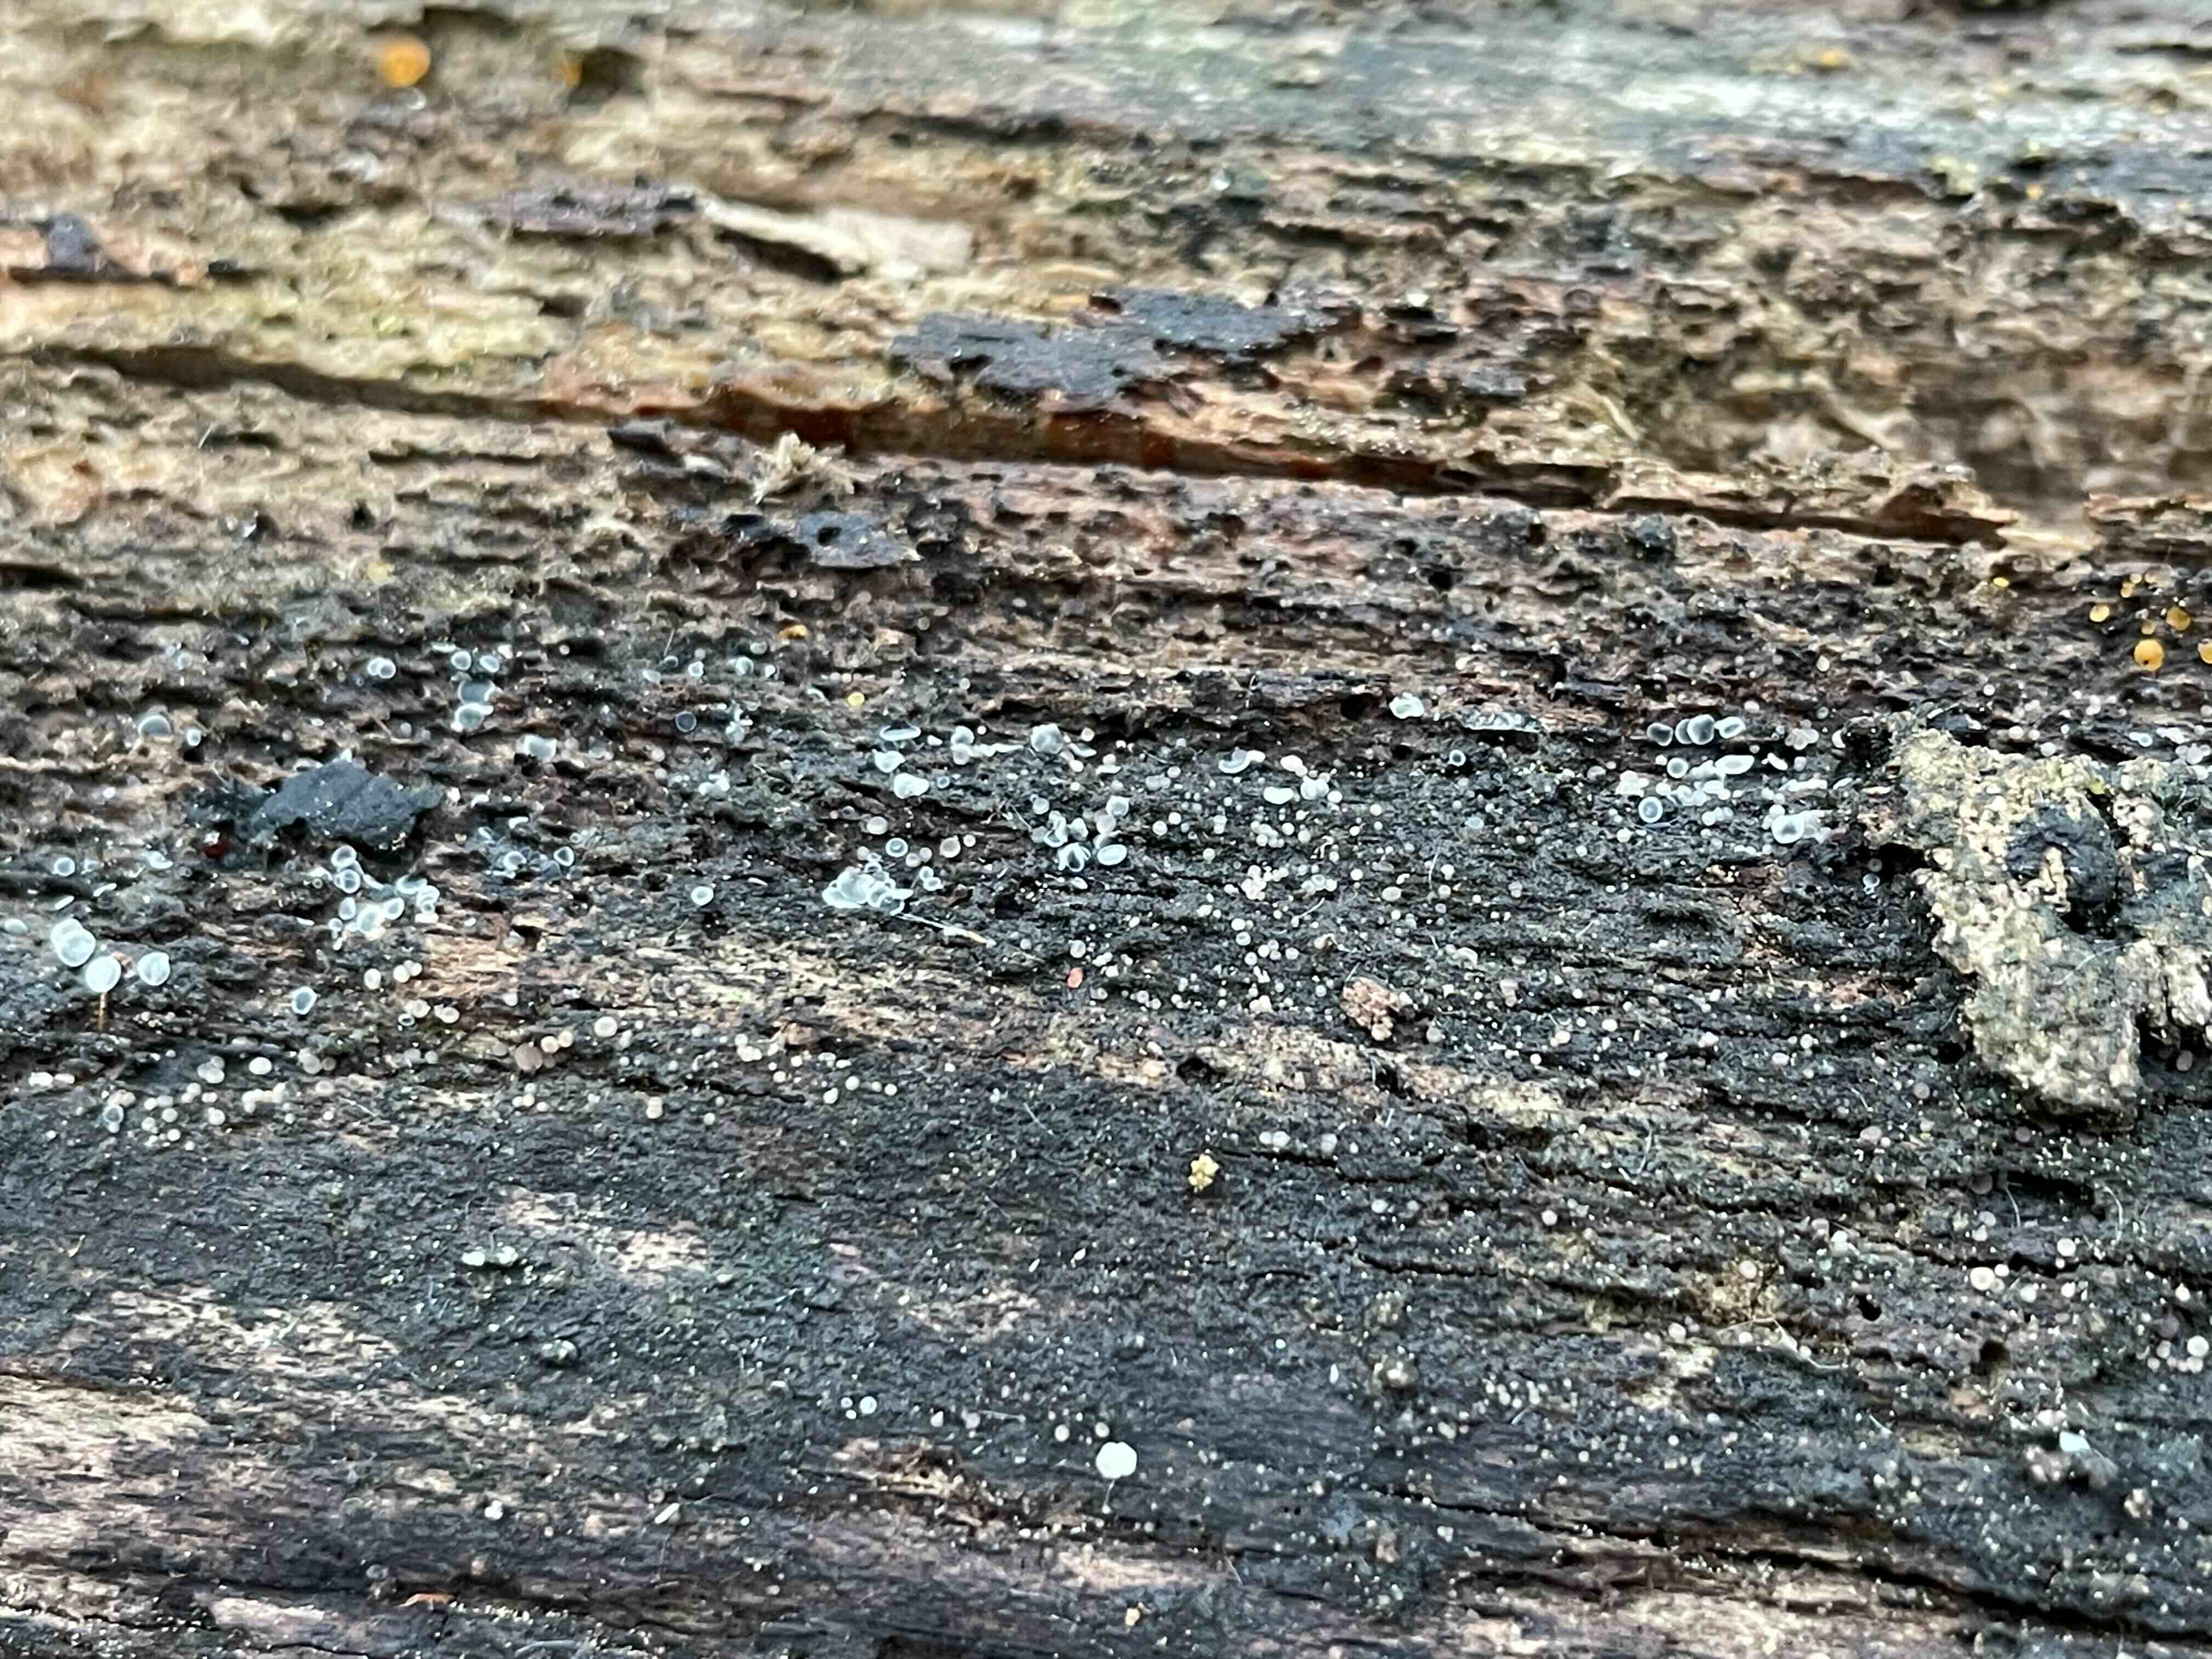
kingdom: Fungi
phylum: Ascomycota
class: Leotiomycetes
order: Helotiales
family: Mollisiaceae
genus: Mollisia
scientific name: Mollisia
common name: gråskive
